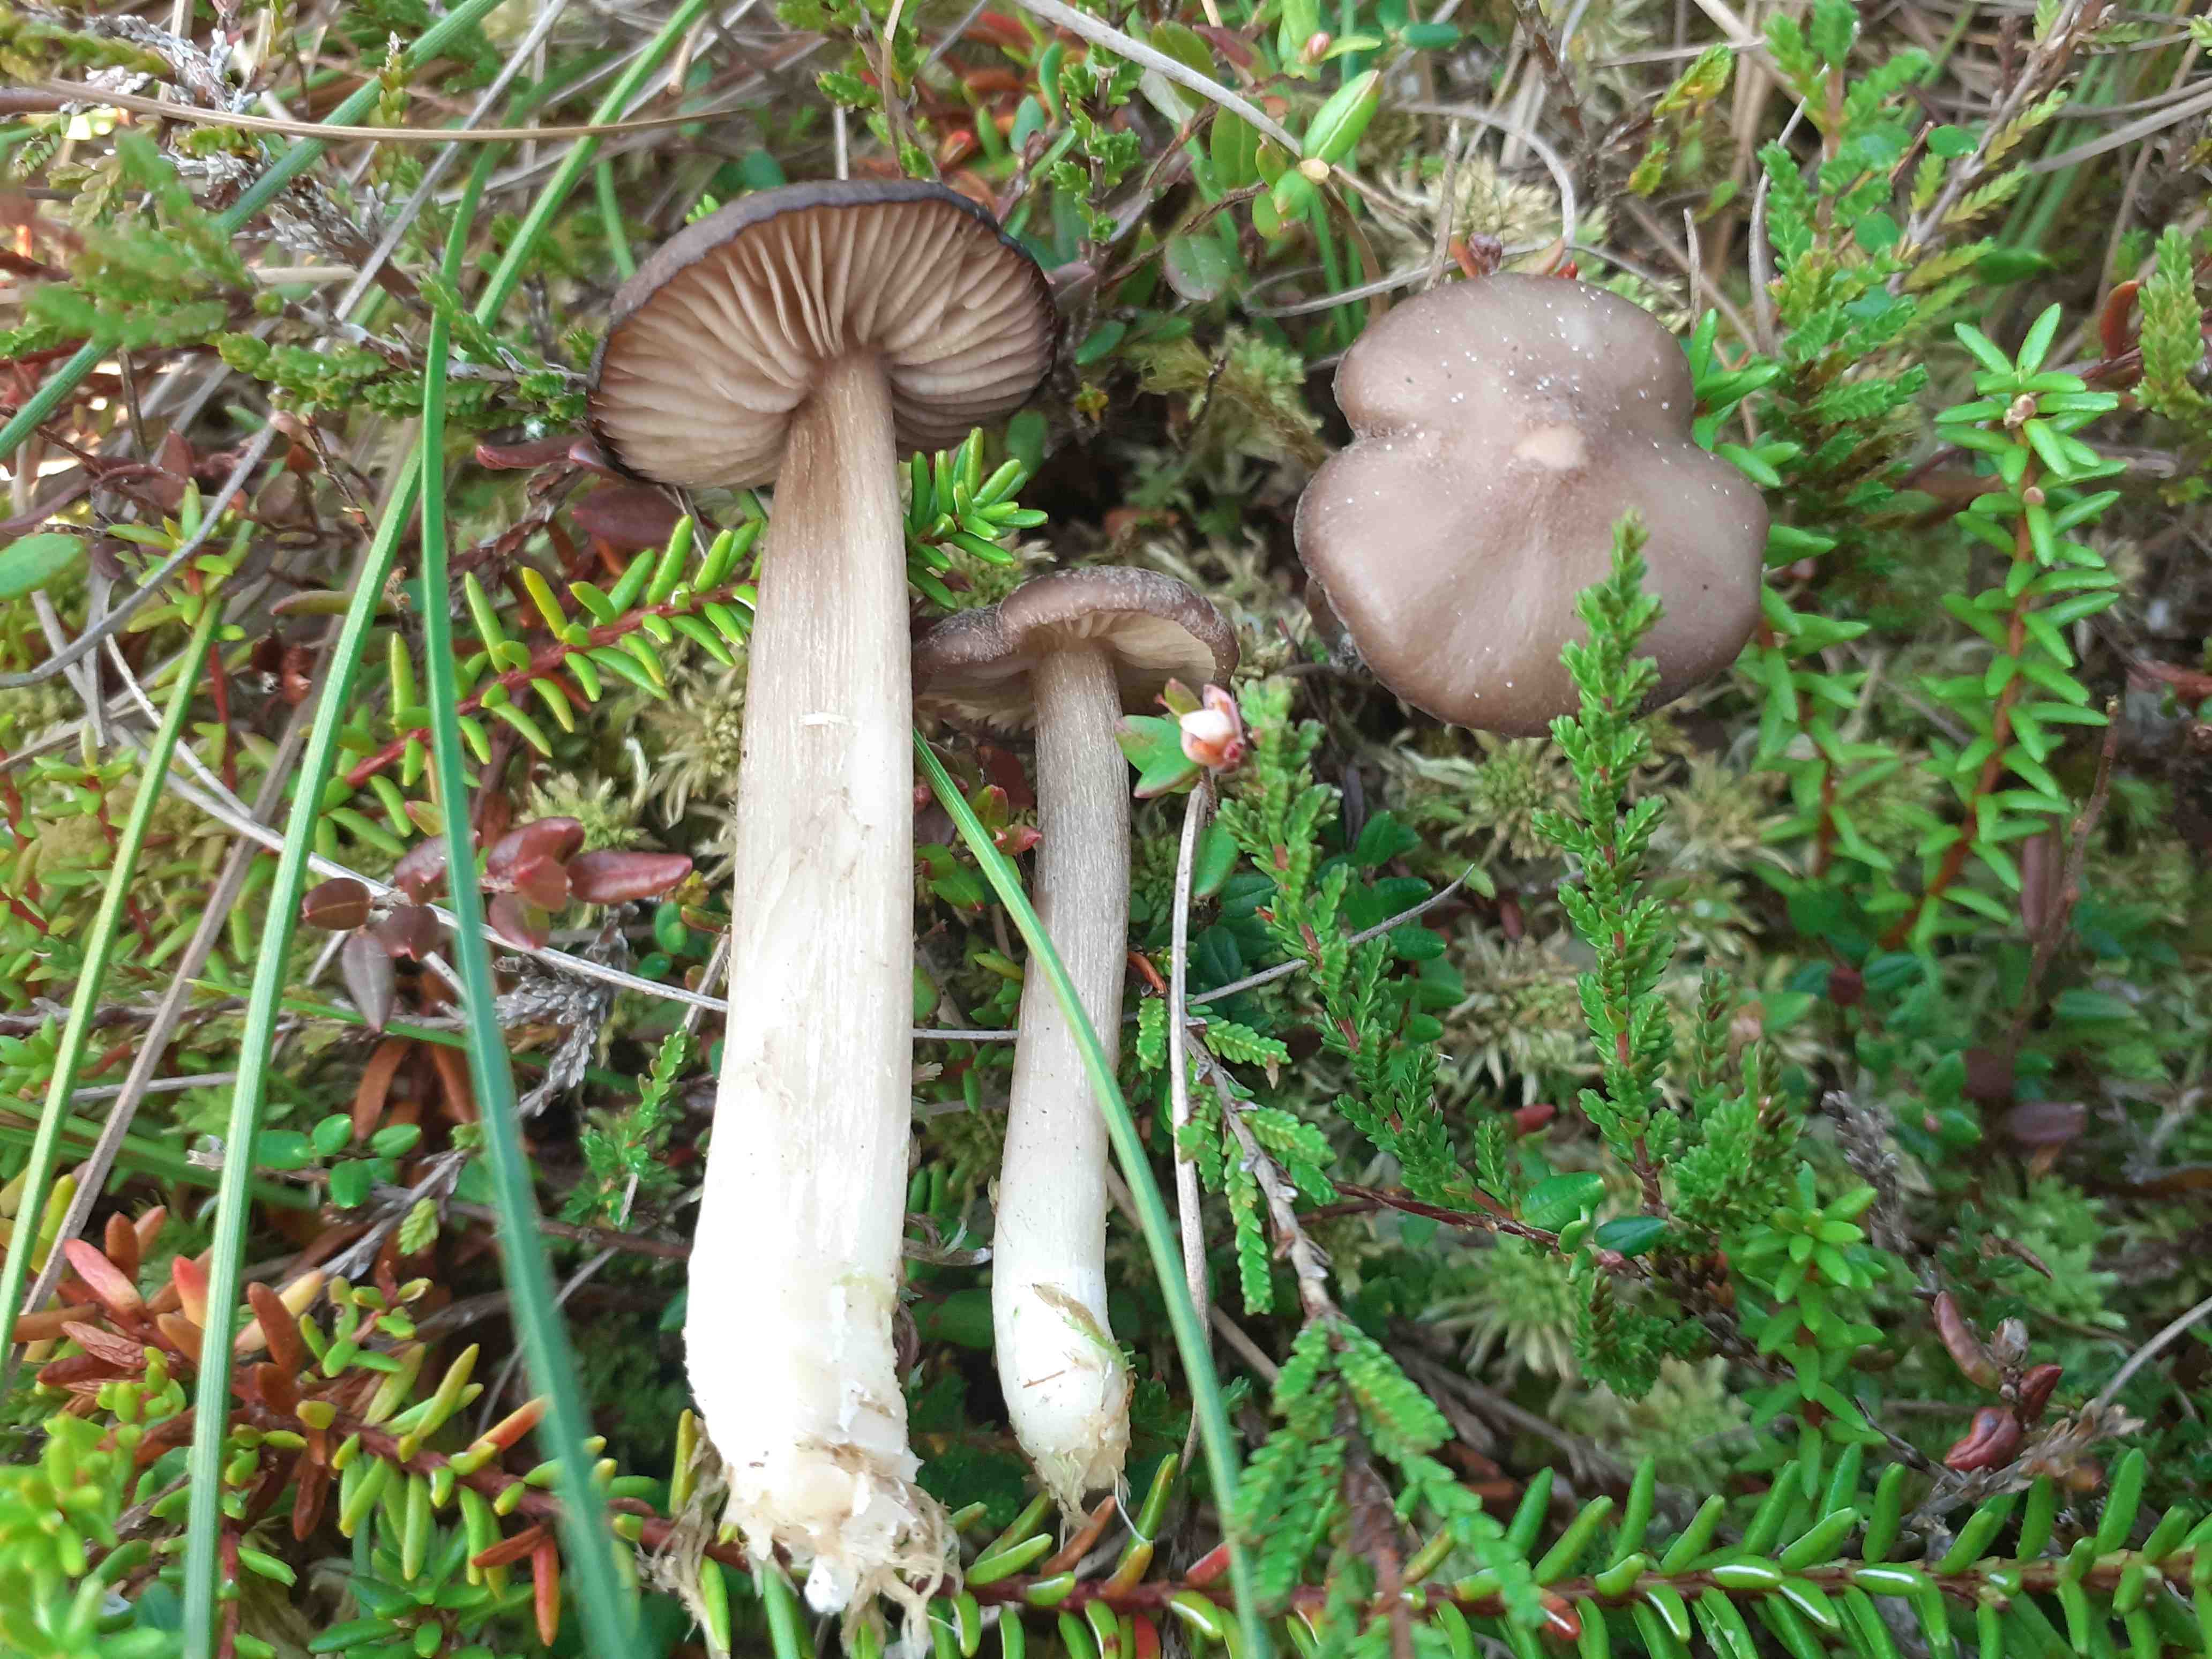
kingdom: Fungi
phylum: Basidiomycota
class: Agaricomycetes
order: Agaricales
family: Entolomataceae
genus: Entoloma
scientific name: Entoloma elodes
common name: mørkægget rødblad
